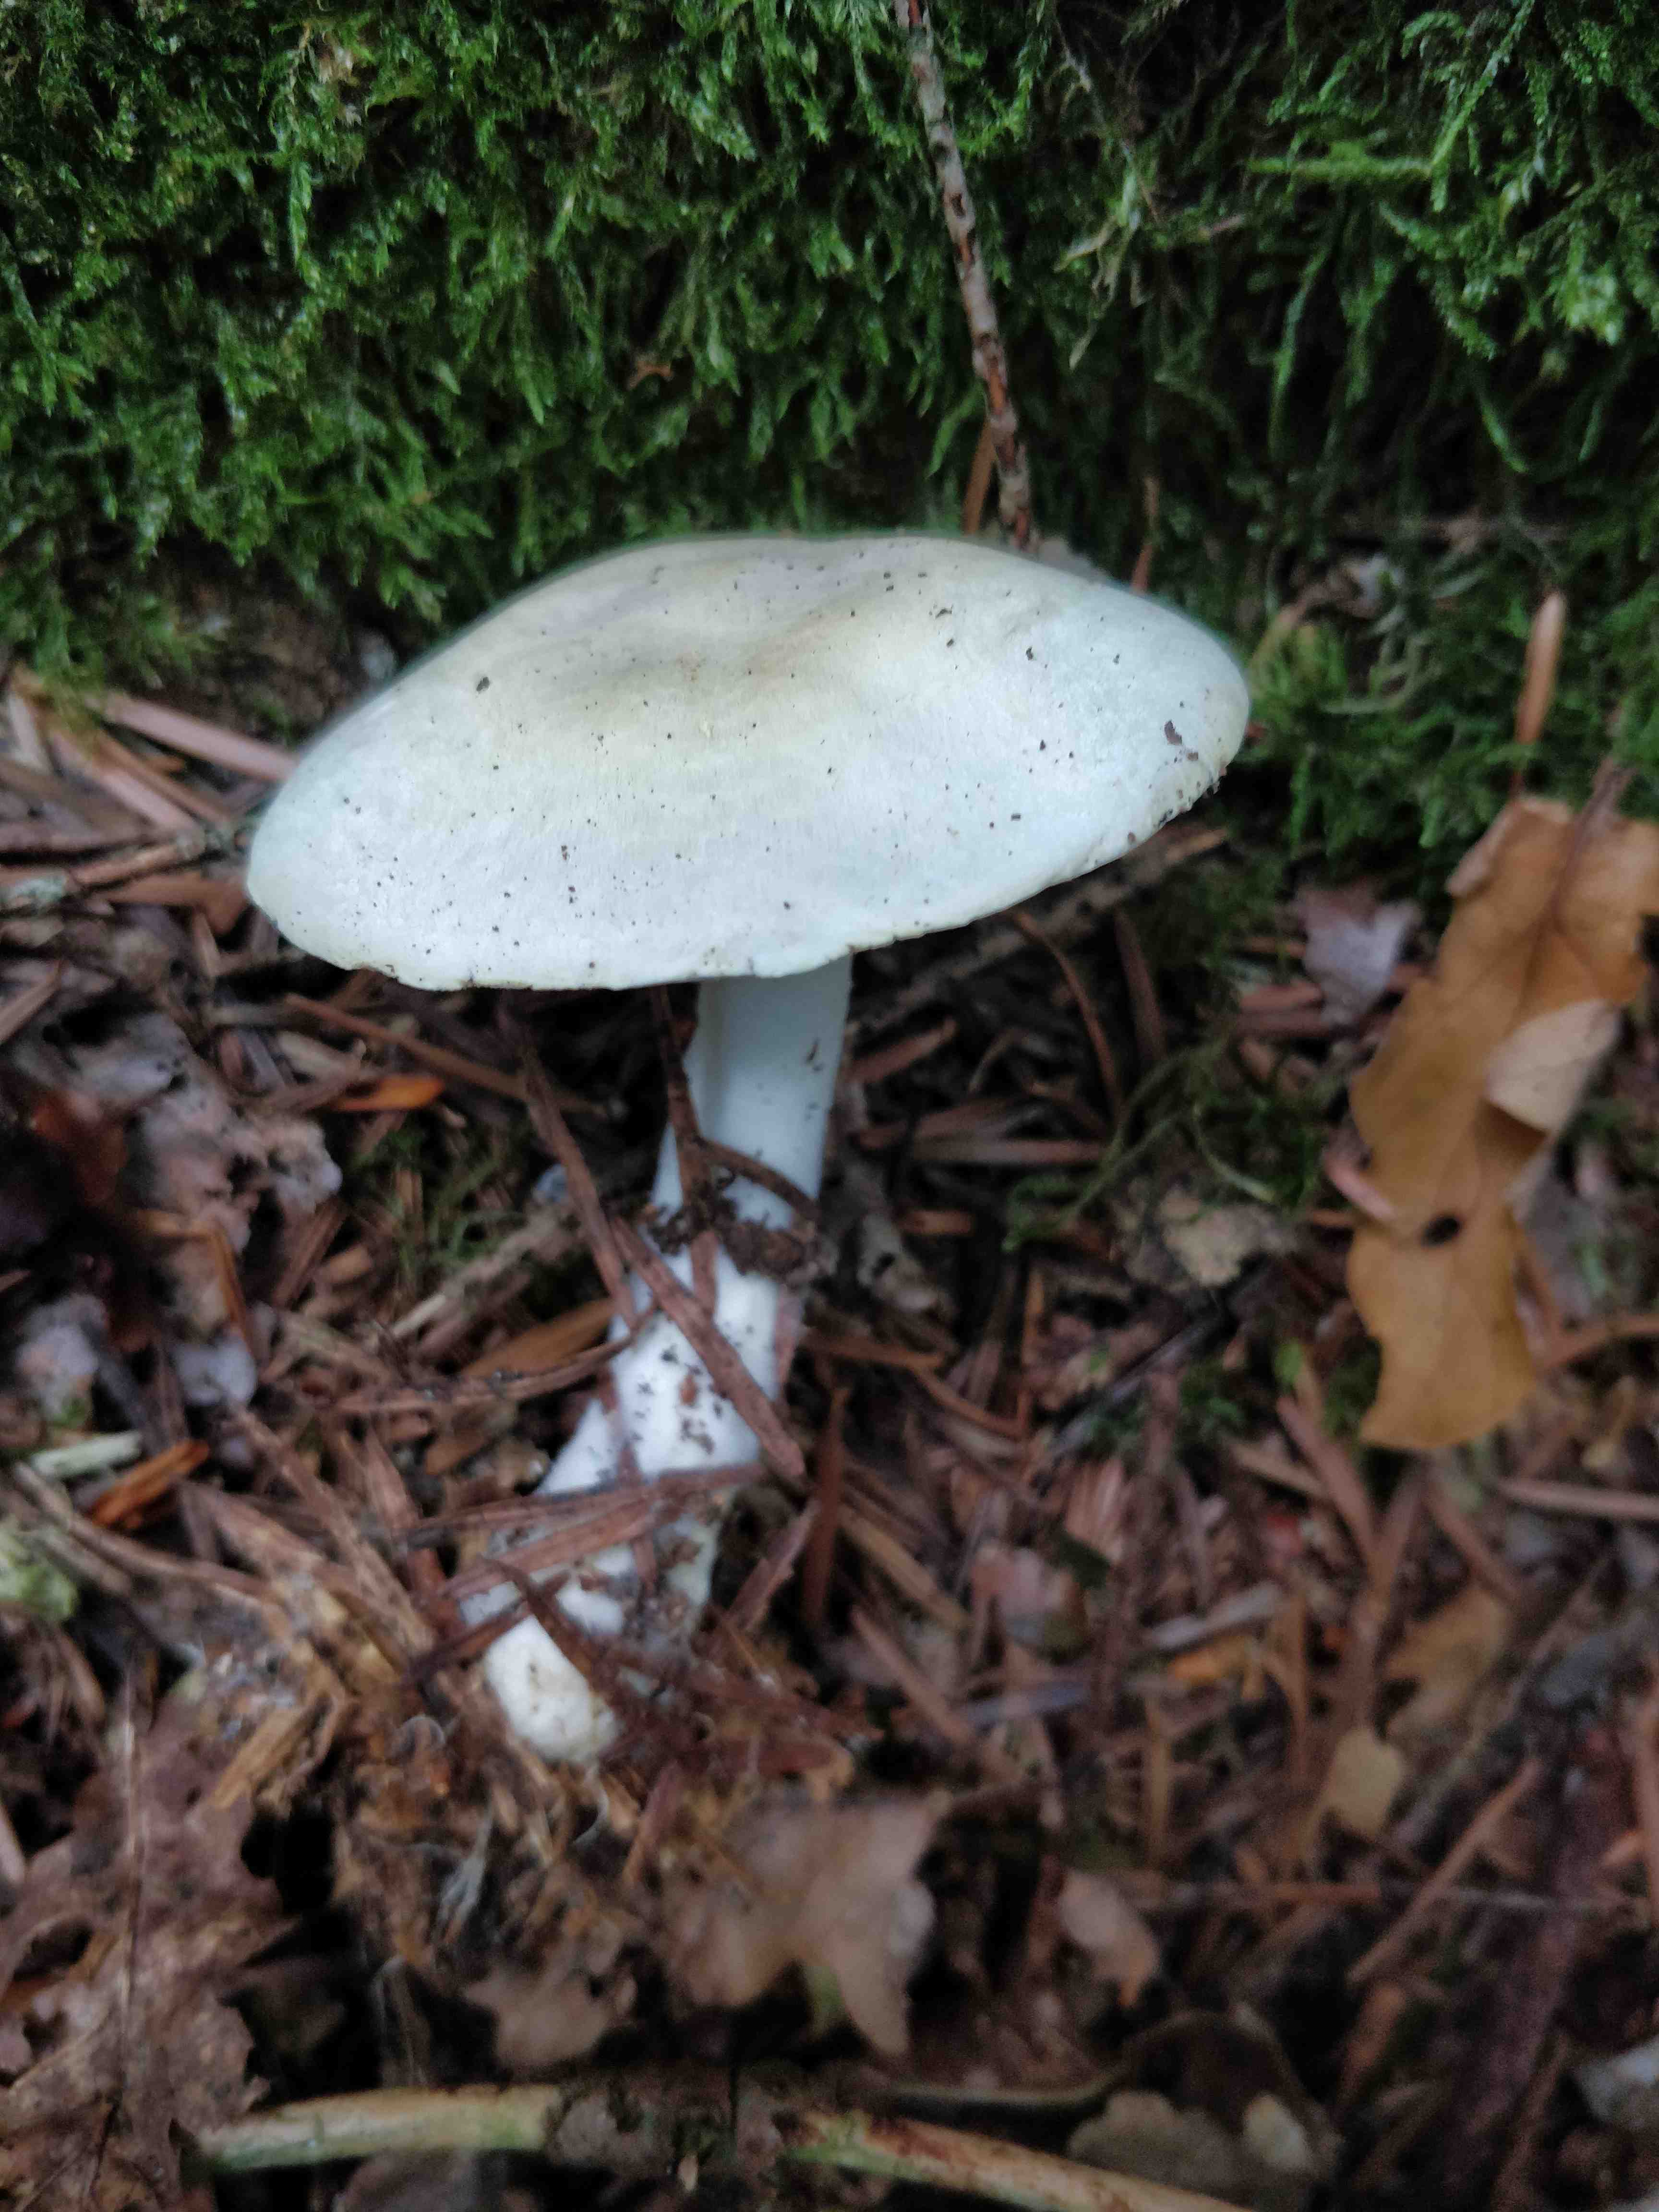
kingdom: Fungi
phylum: Basidiomycota
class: Agaricomycetes
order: Agaricales
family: Agaricaceae
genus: Agaricus
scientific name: Agaricus
